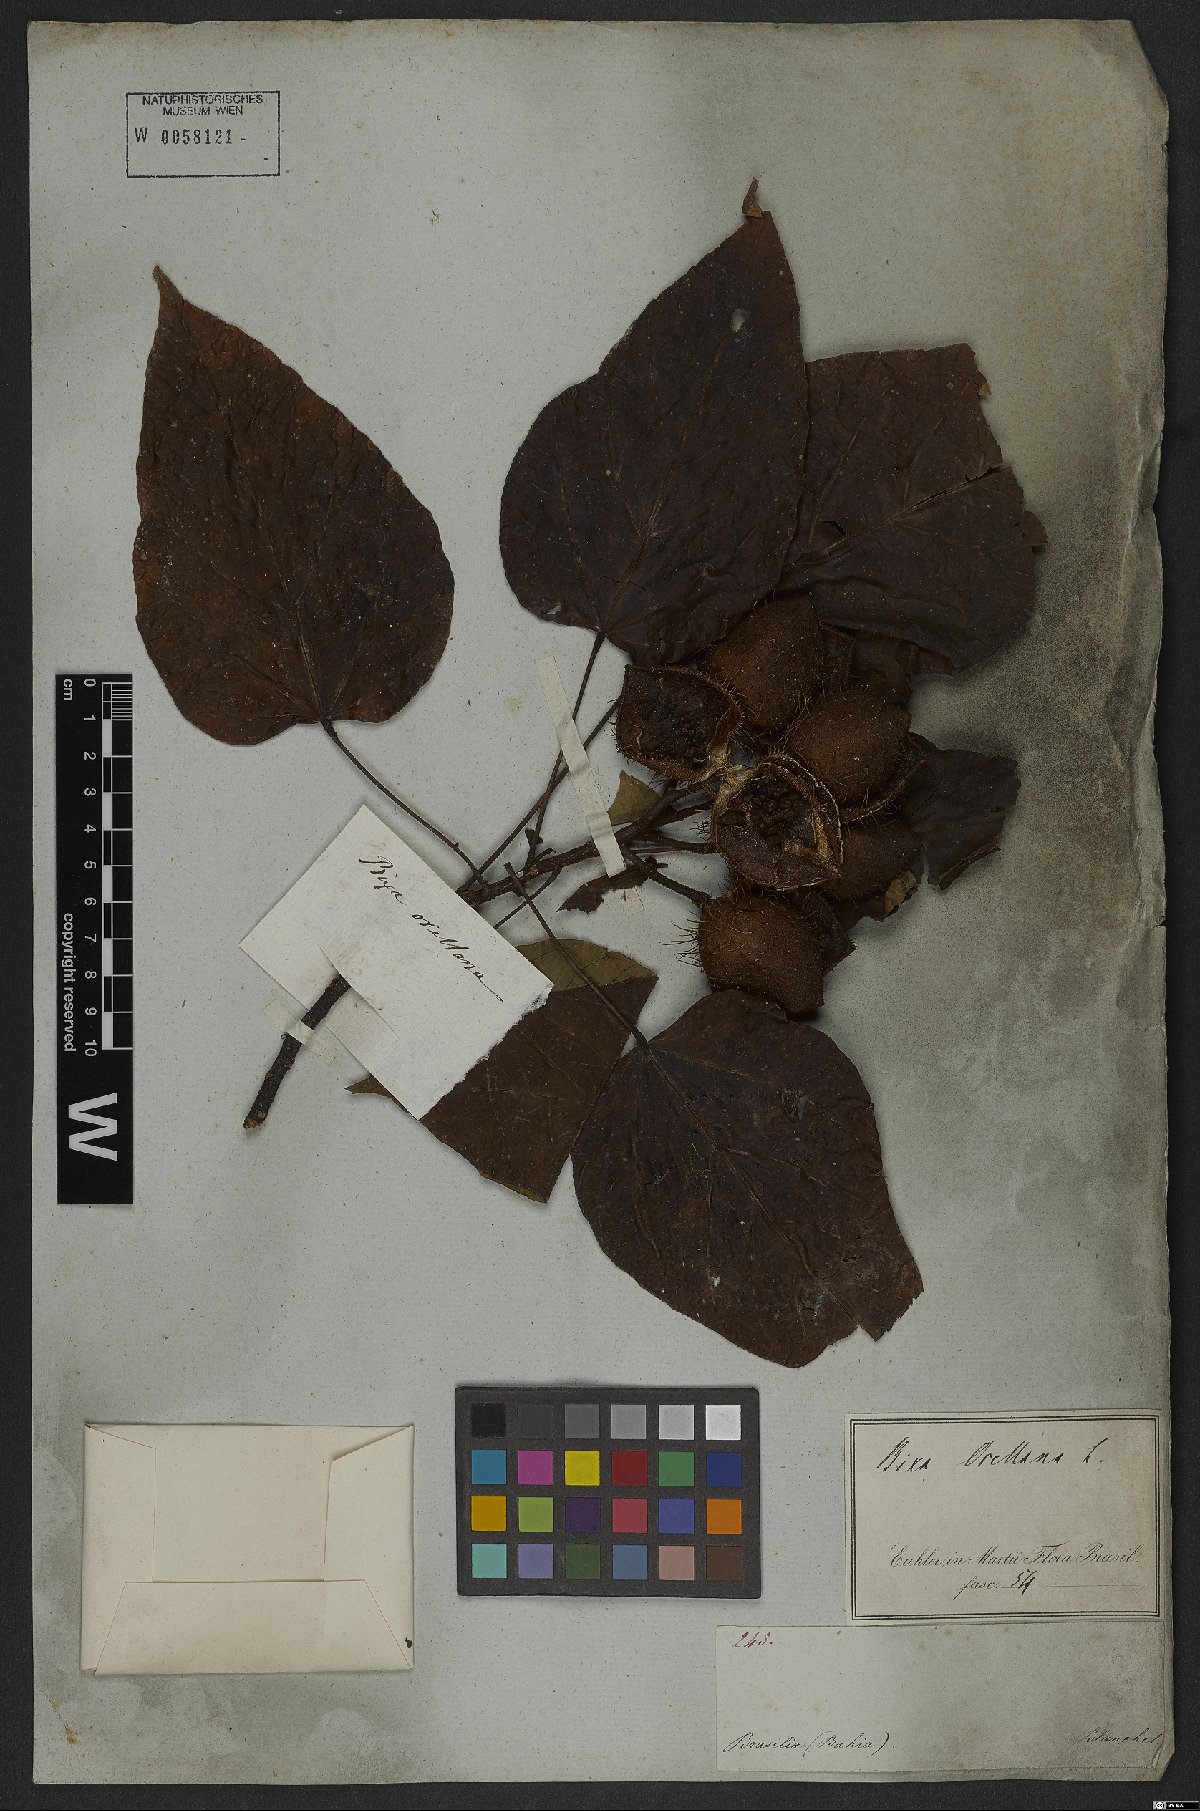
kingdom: Plantae
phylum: Tracheophyta
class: Magnoliopsida
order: Malvales
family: Bixaceae
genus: Bixa
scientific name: Bixa orellana
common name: Lipsticktree
